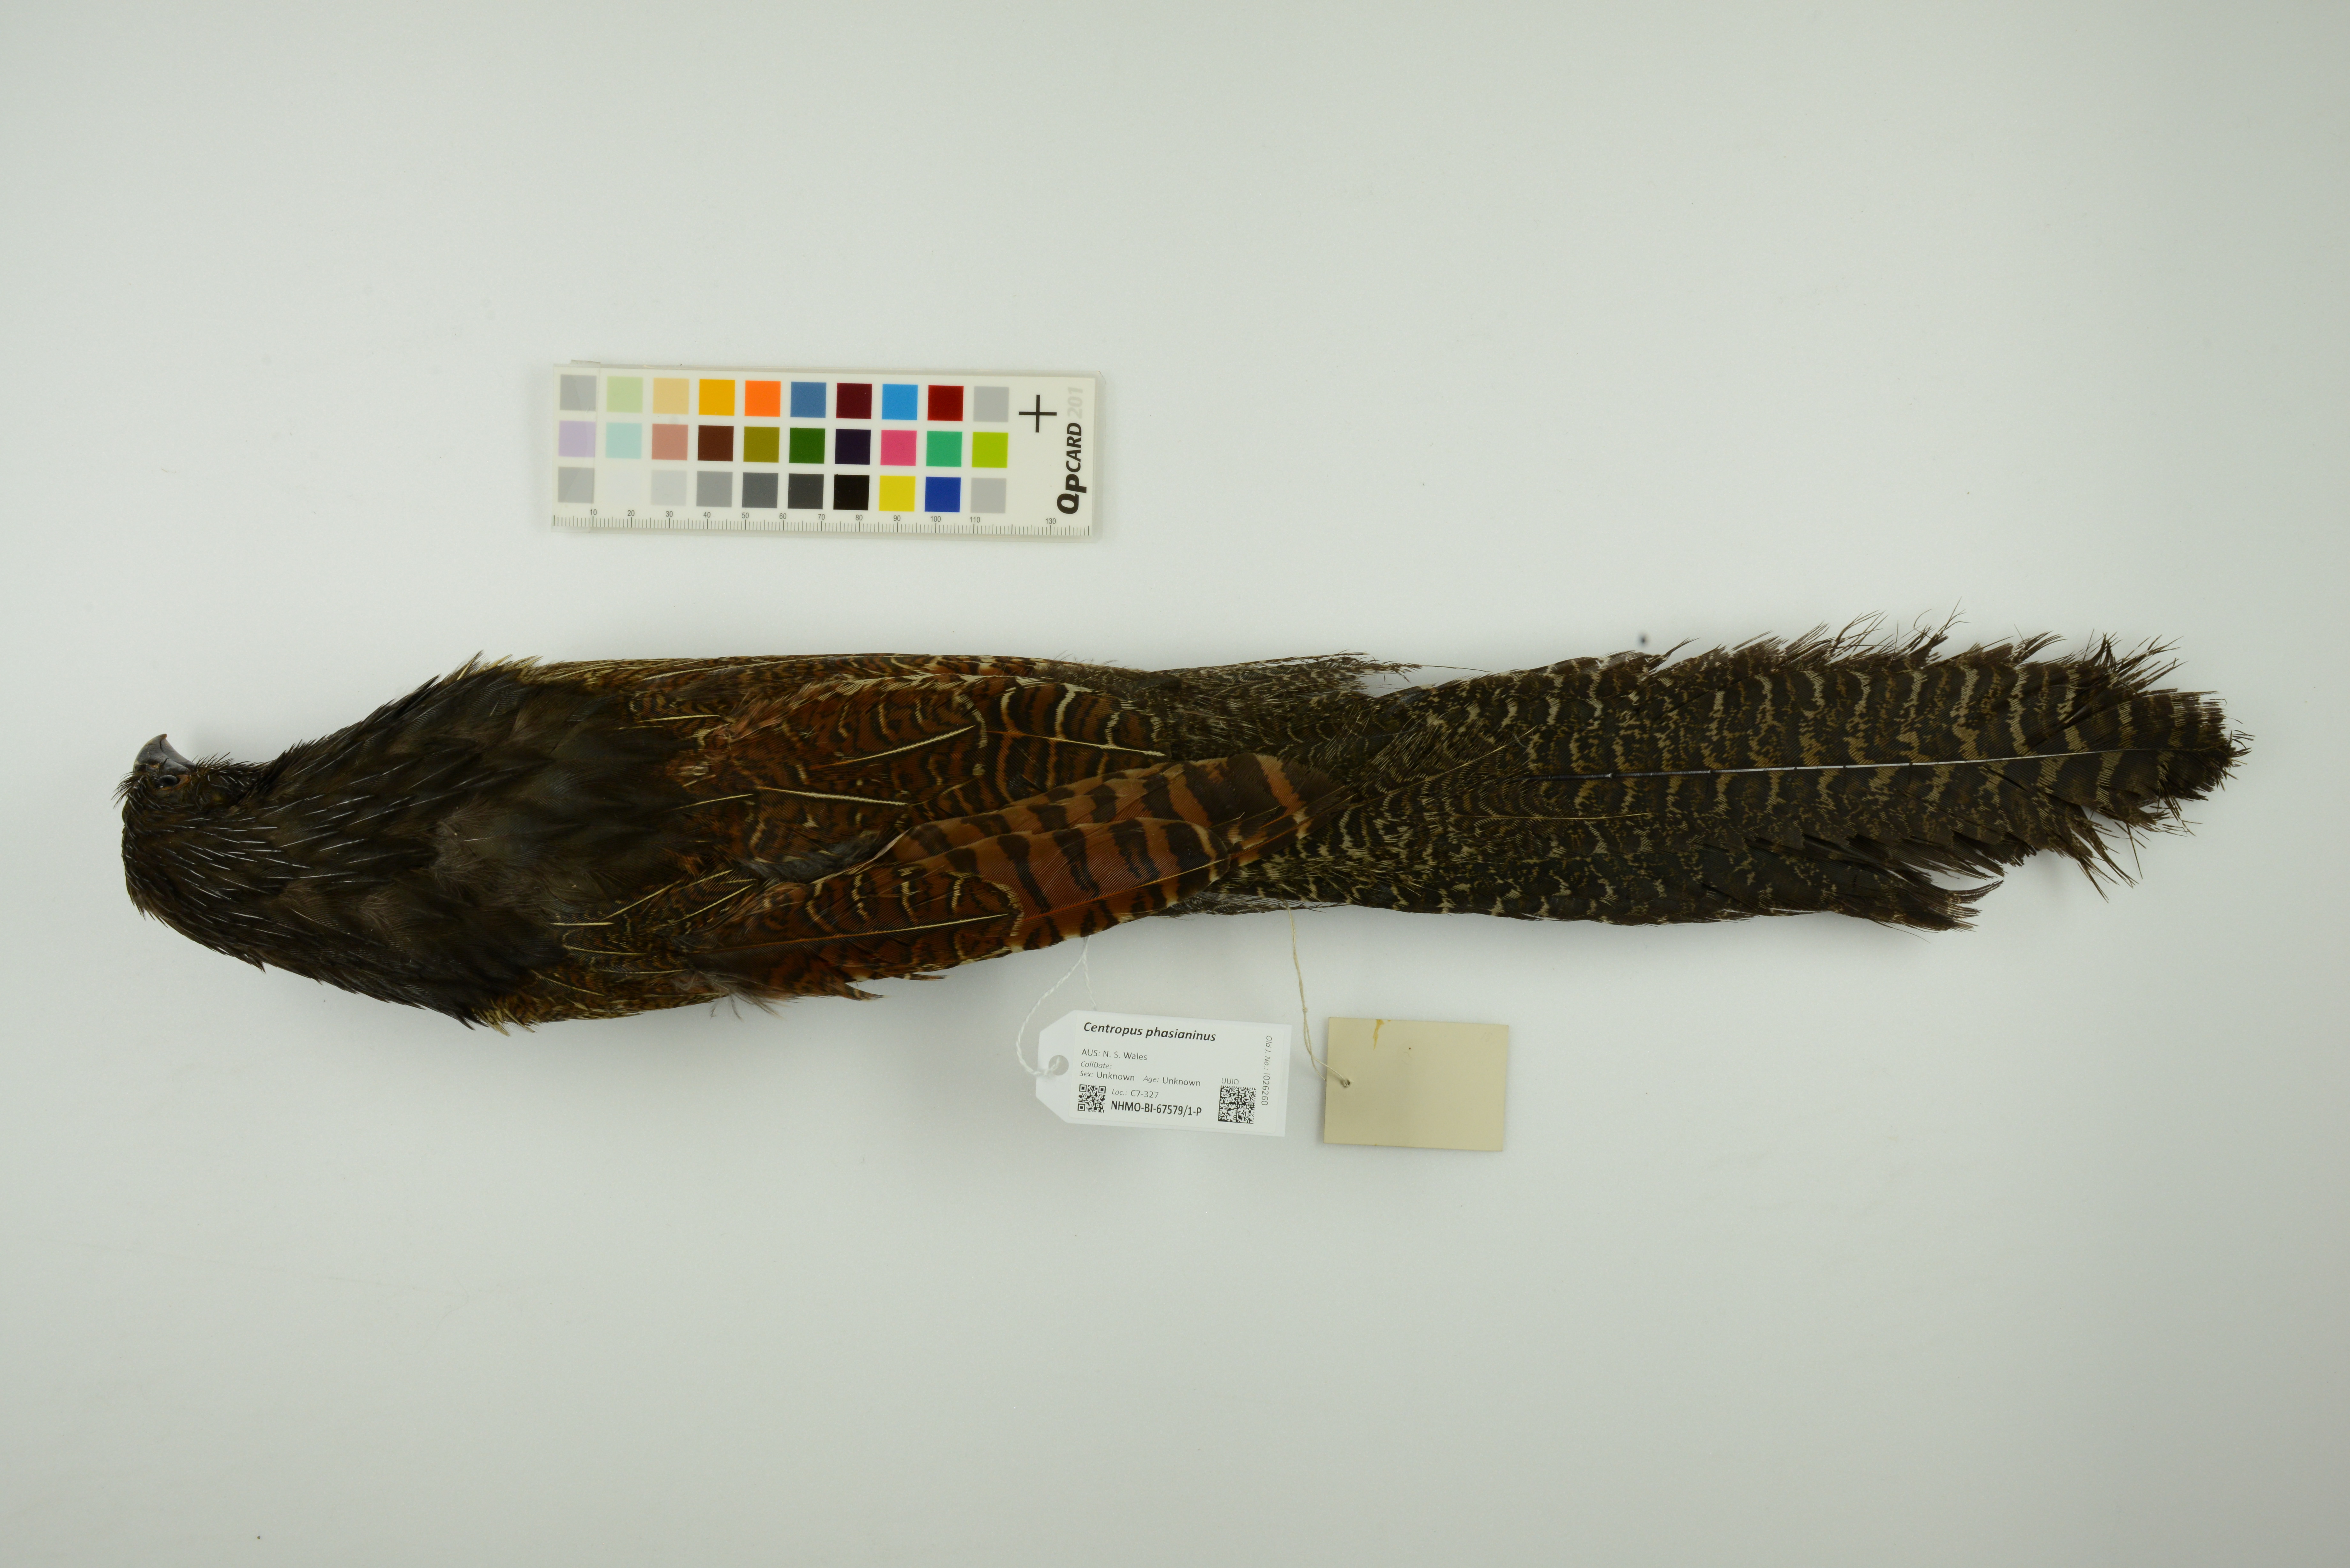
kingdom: Animalia
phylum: Chordata
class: Aves
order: Cuculiformes
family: Cuculidae
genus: Centropus
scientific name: Centropus phasianinus
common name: Pheasant coucal
